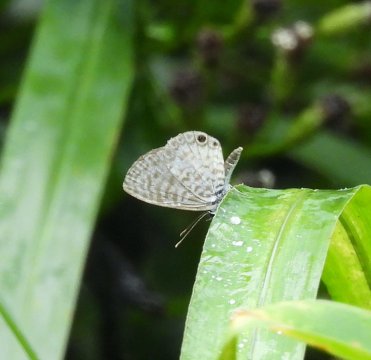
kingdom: Animalia
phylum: Arthropoda
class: Insecta
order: Lepidoptera
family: Lycaenidae
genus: Leptotes
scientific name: Leptotes cassius
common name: Cassius Blue
